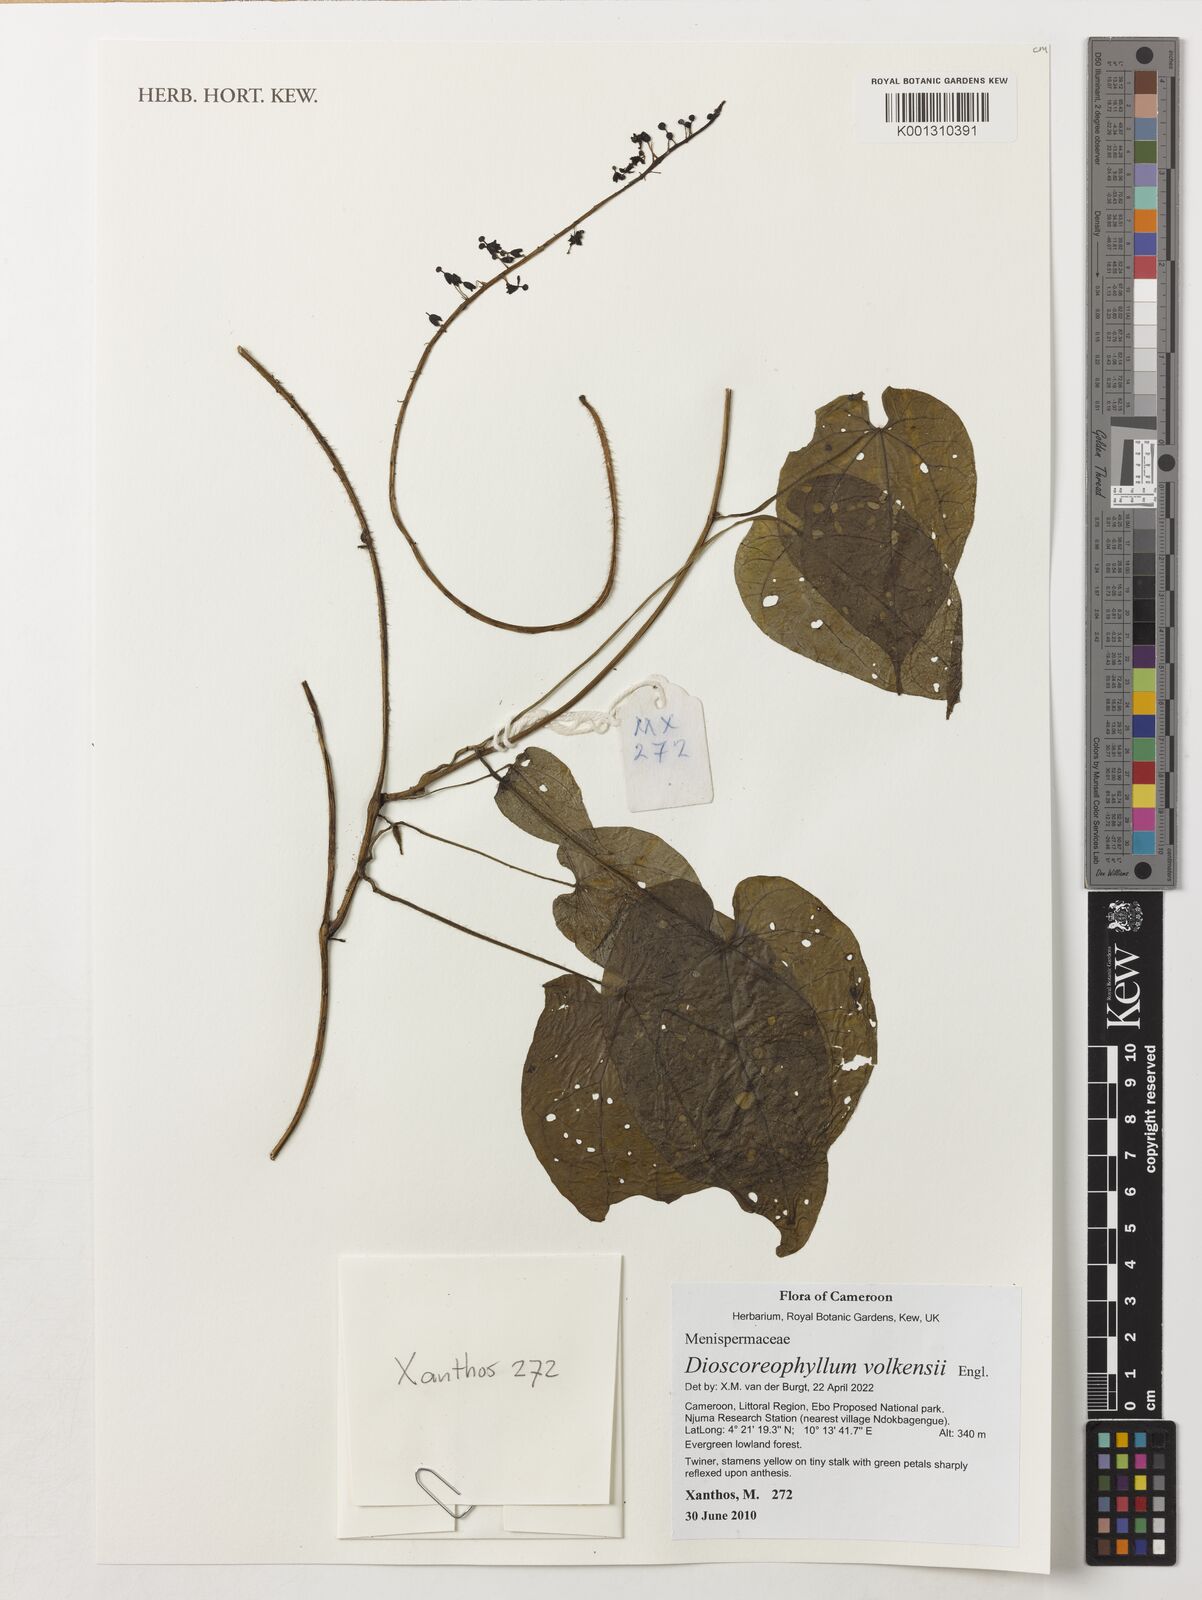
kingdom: Plantae
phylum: Tracheophyta
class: Magnoliopsida
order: Ranunculales
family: Menispermaceae
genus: Dioscoreophyllum
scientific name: Dioscoreophyllum volkensii
